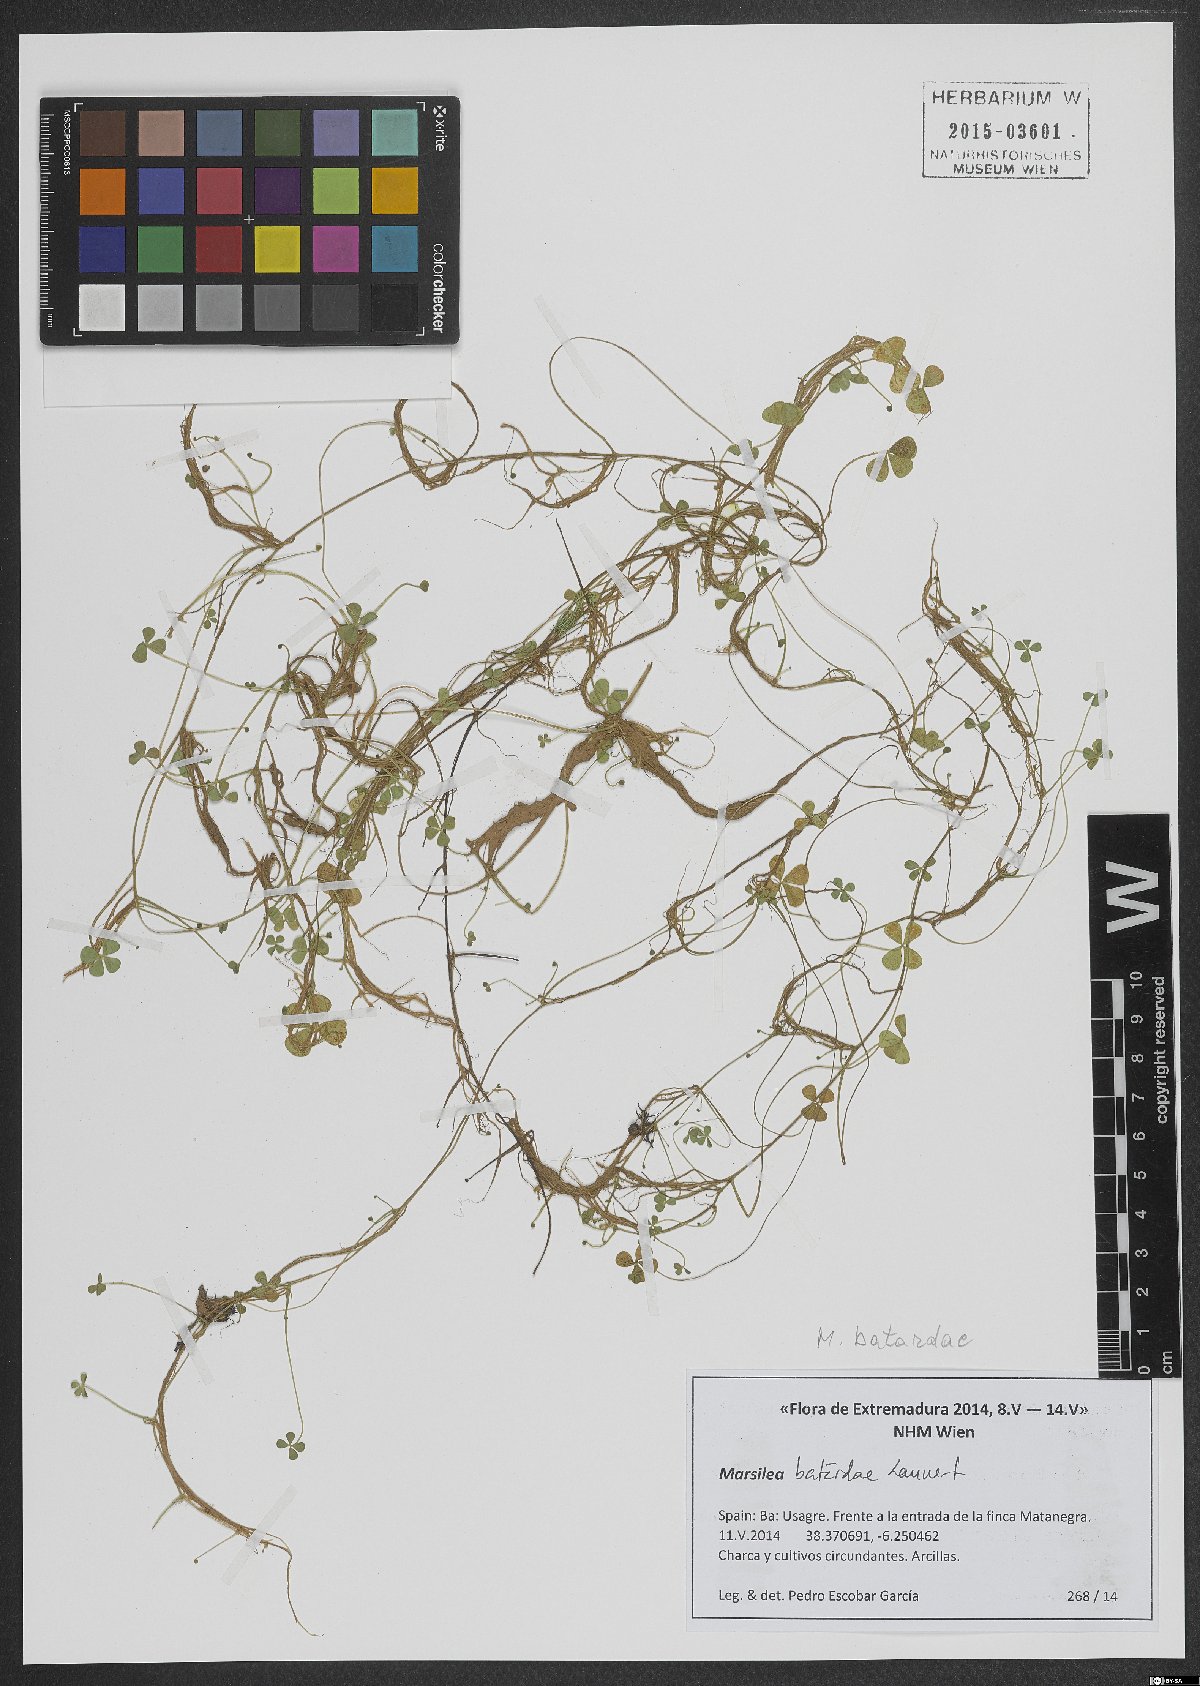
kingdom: Plantae
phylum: Tracheophyta
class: Polypodiopsida
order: Salviniales
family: Marsileaceae
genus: Marsilea
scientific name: Marsilea batardae
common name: Lusitanian water clover
